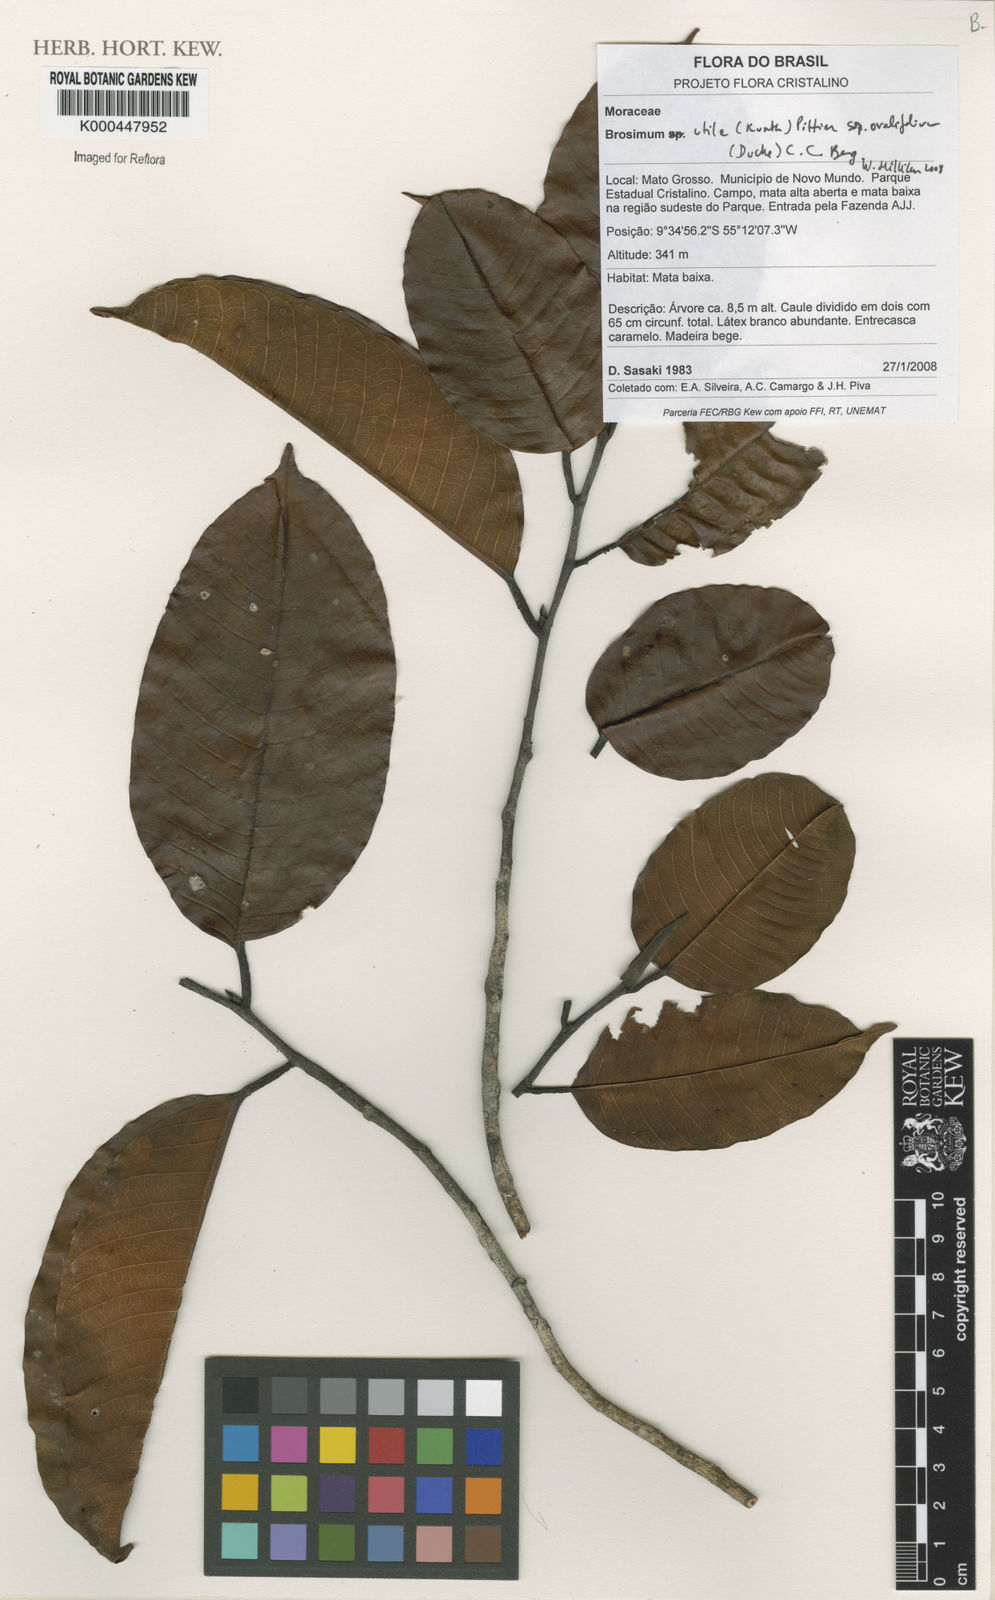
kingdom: Plantae
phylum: Tracheophyta
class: Magnoliopsida
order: Rosales
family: Moraceae
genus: Brosimum
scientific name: Brosimum utile
